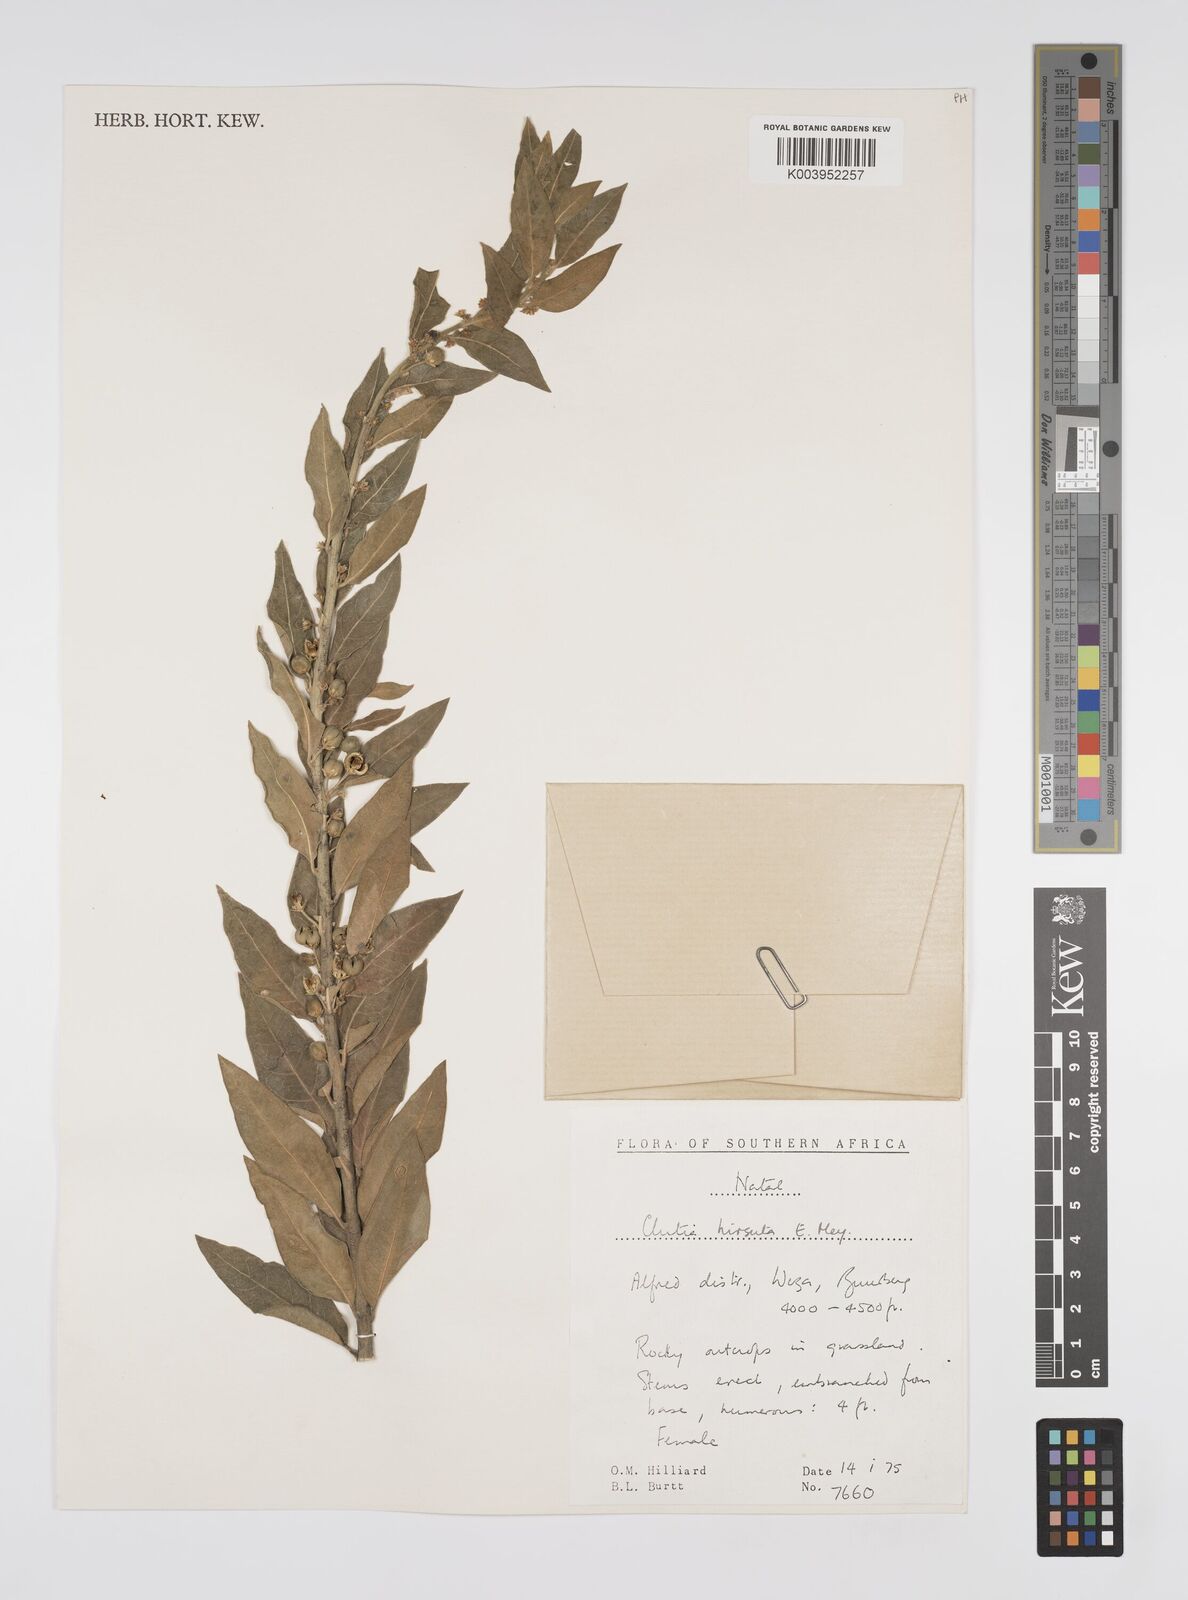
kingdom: Plantae
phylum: Tracheophyta
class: Magnoliopsida
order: Malpighiales
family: Peraceae
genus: Clutia
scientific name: Clutia affinis
